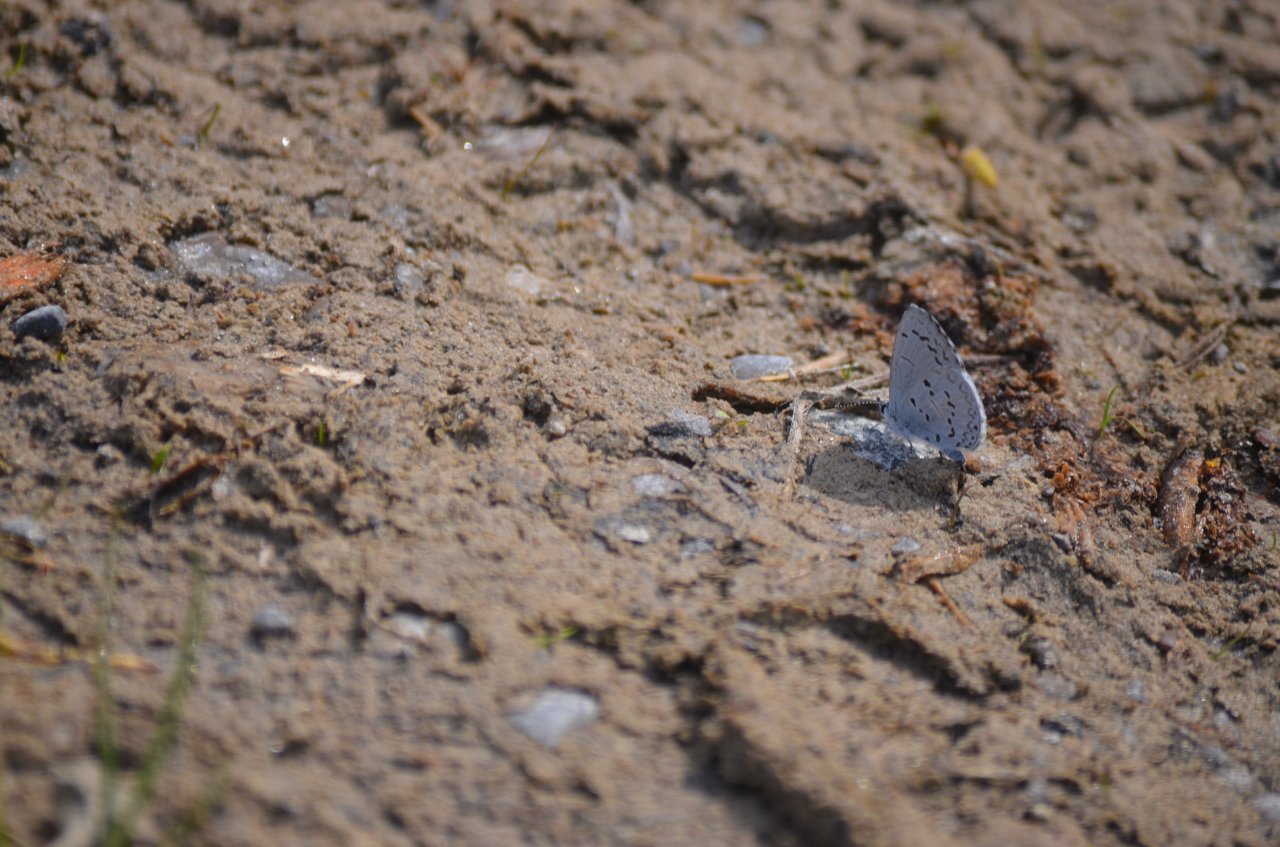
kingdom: Animalia
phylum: Arthropoda
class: Insecta
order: Lepidoptera
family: Lycaenidae
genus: Celastrina
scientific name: Celastrina
